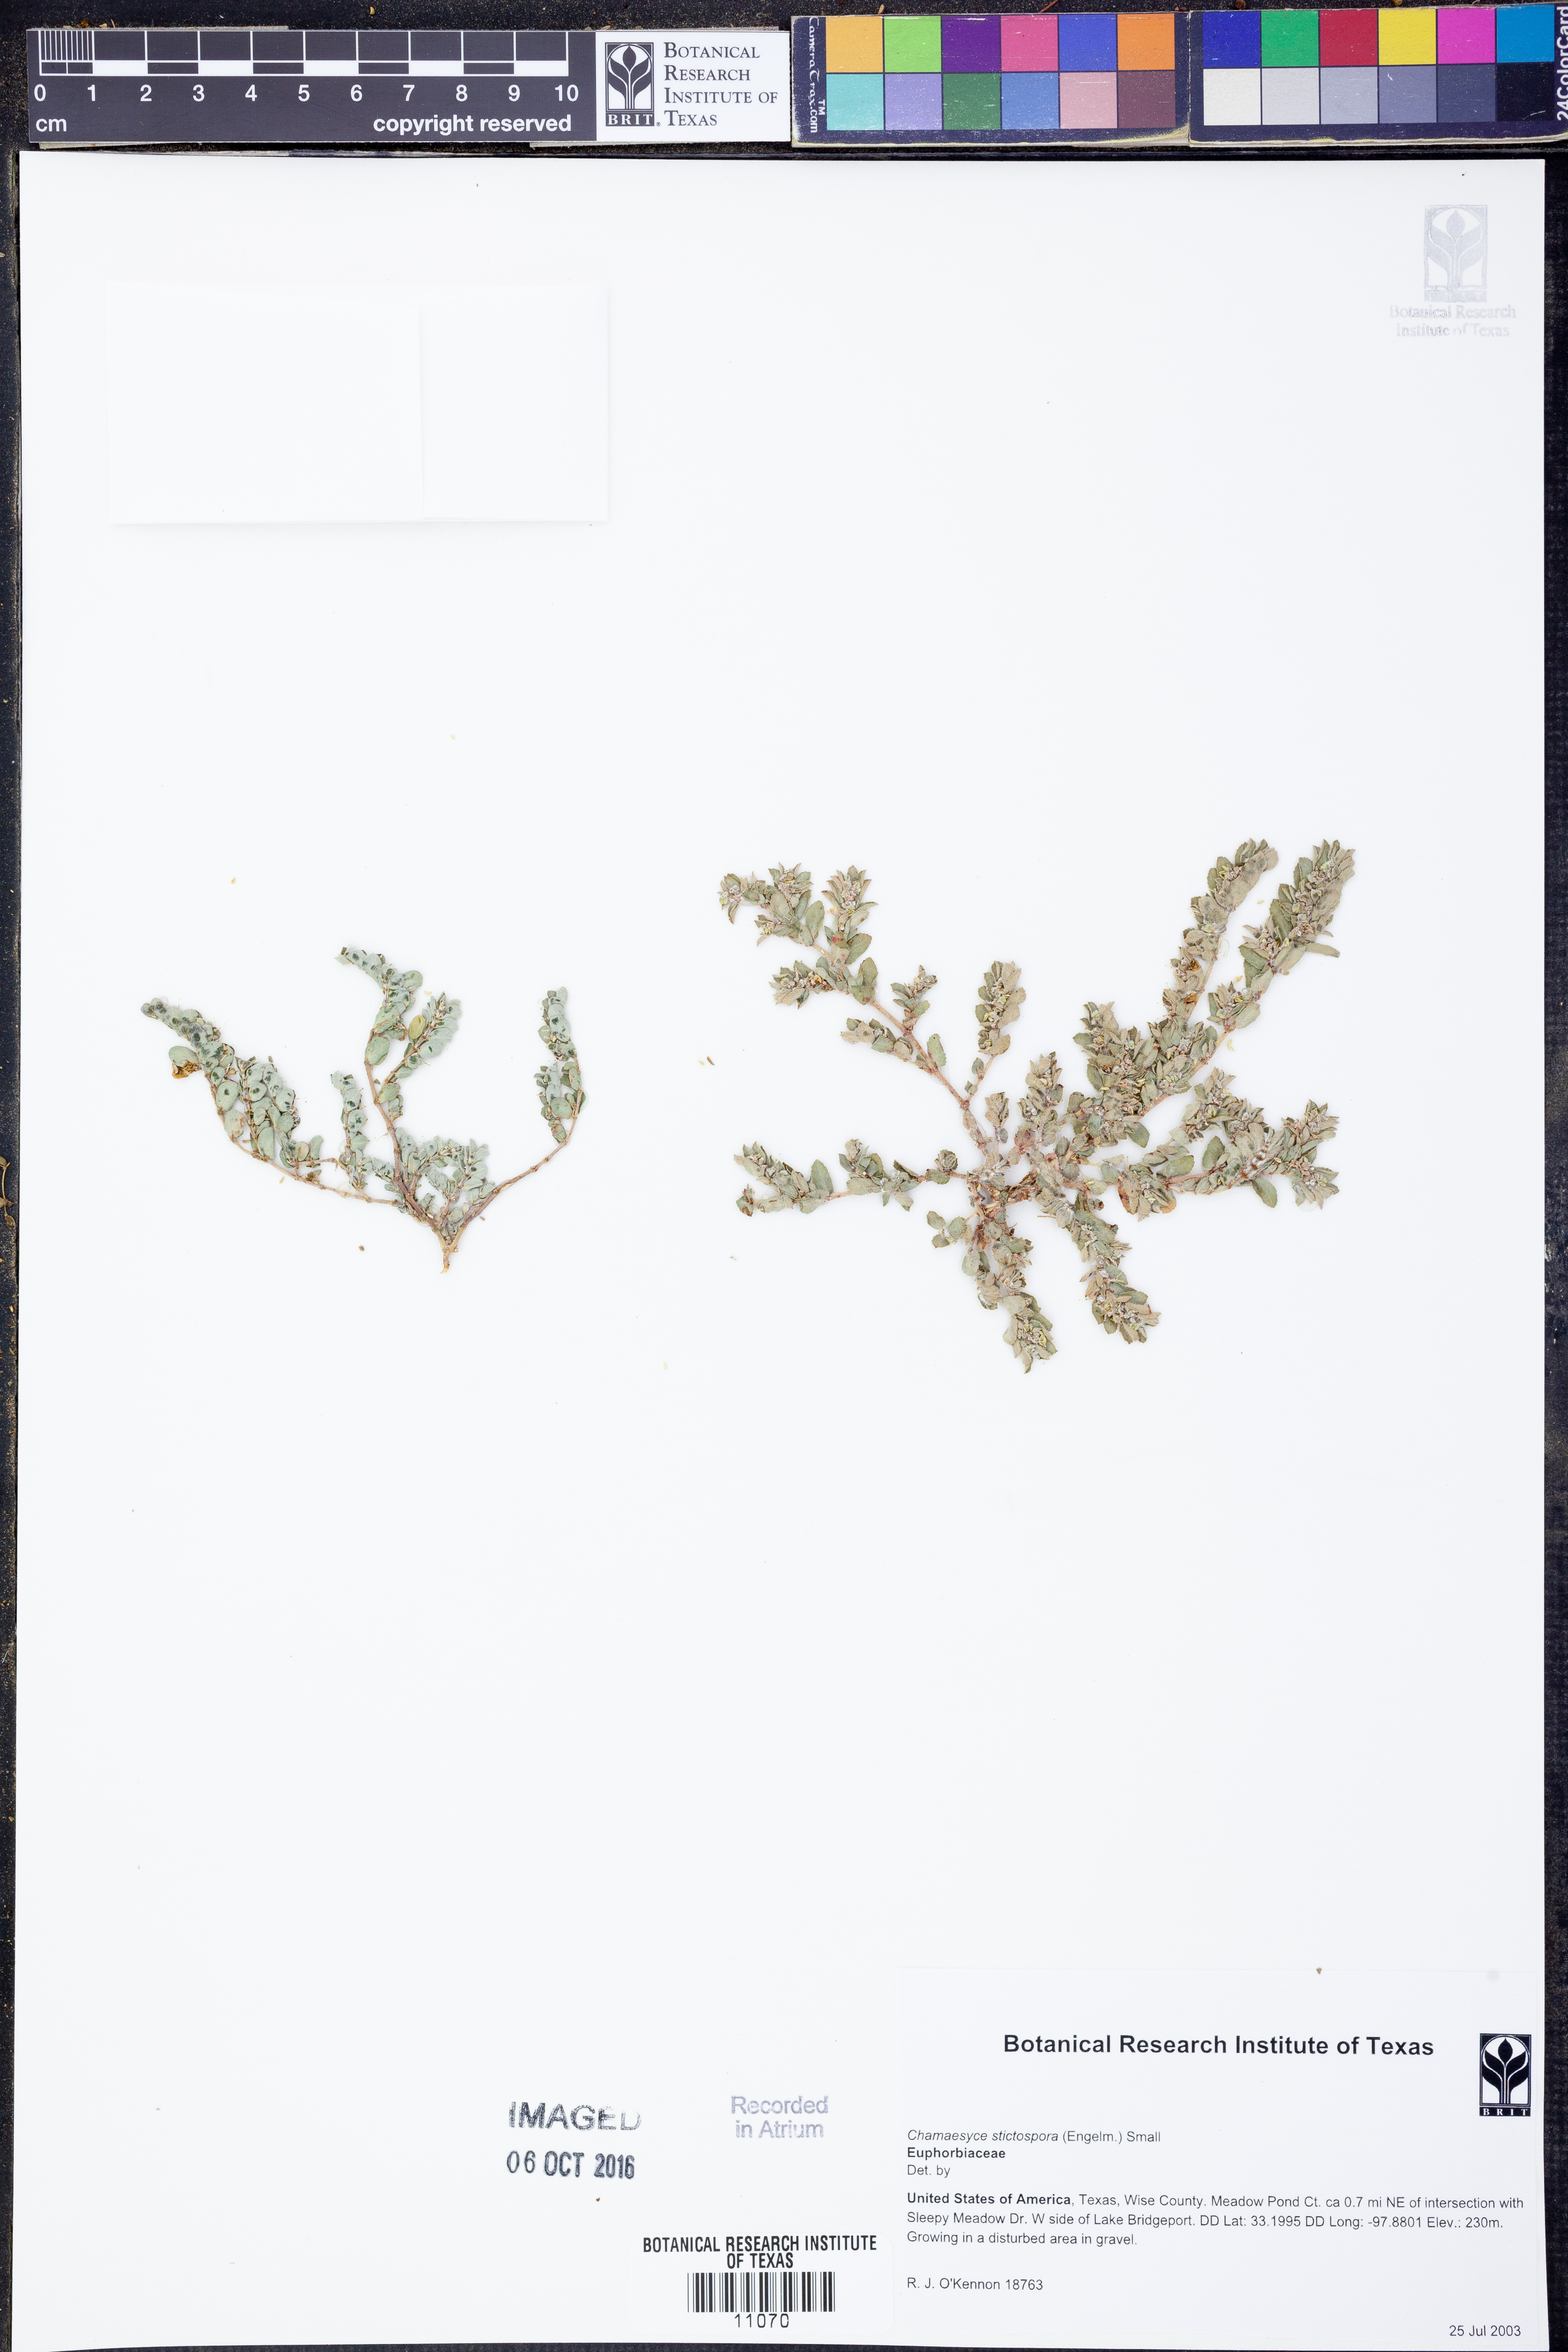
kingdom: Plantae
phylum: Tracheophyta
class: Magnoliopsida
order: Malpighiales
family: Euphorbiaceae
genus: Euphorbia
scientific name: Euphorbia stictospora
